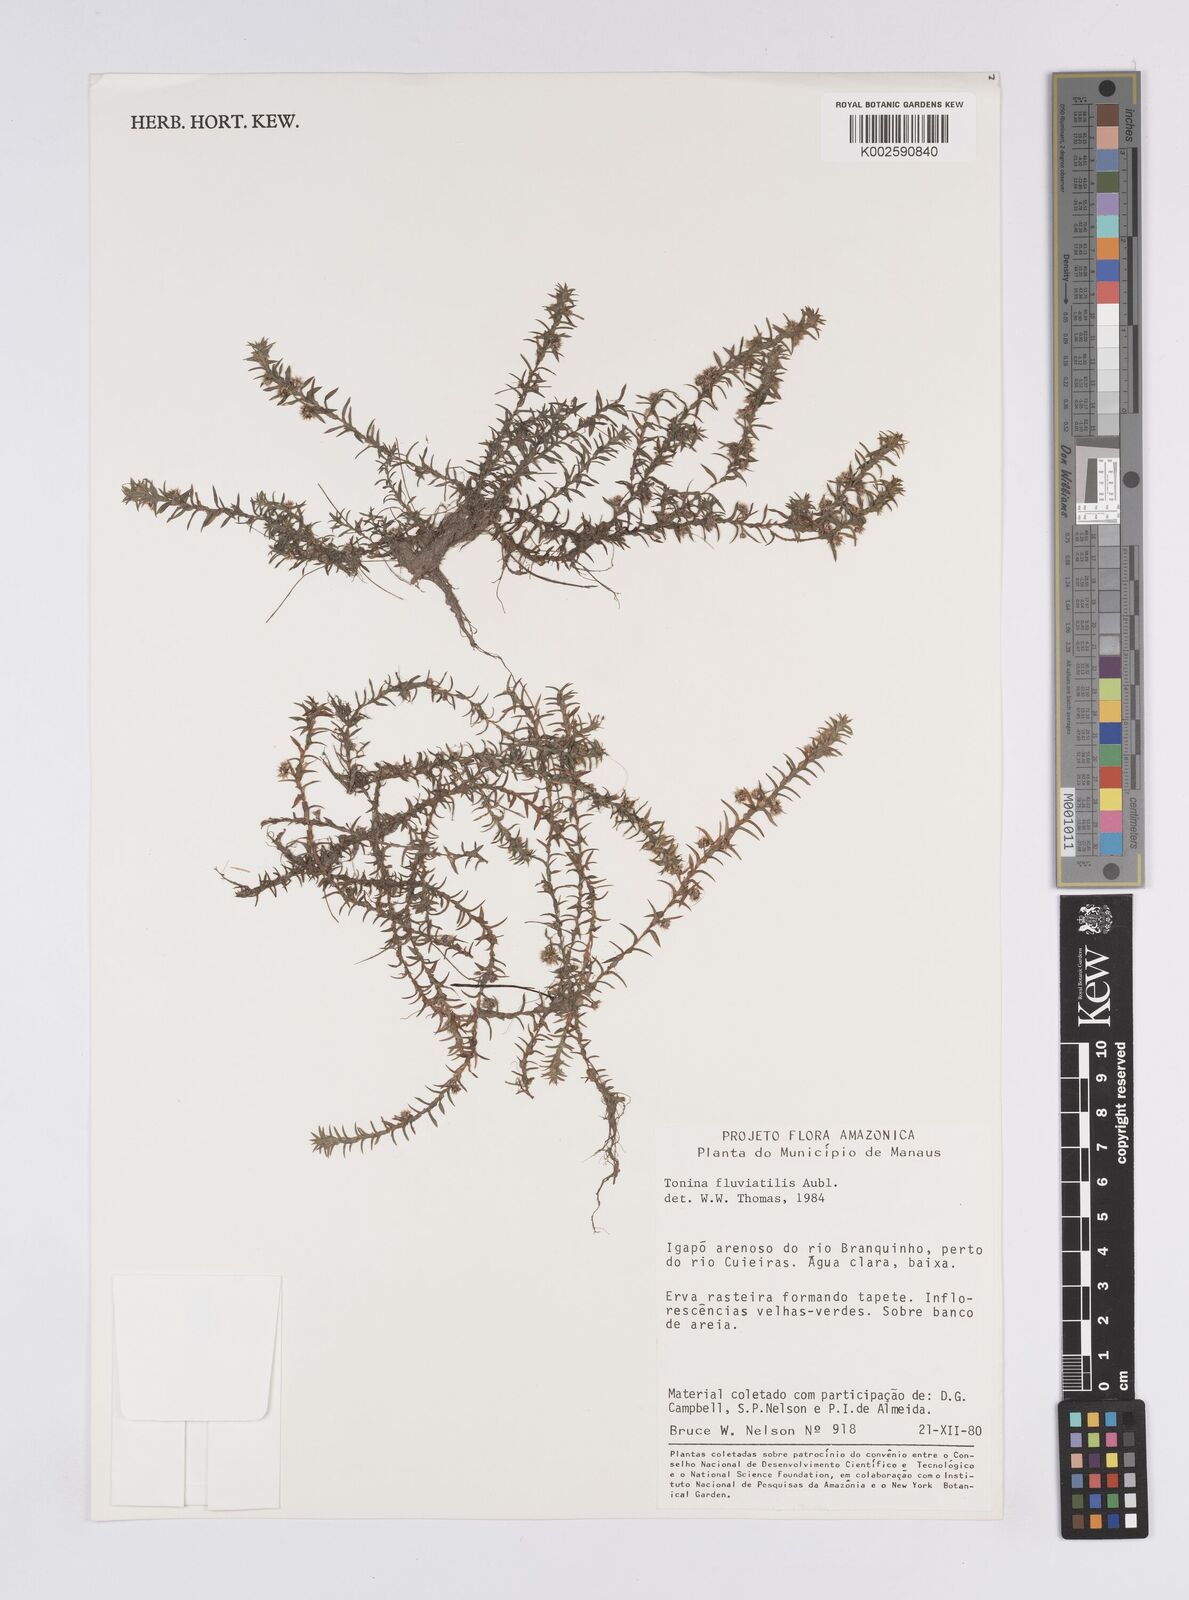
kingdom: Plantae
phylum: Tracheophyta
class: Liliopsida
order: Poales
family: Eriocaulaceae
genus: Paepalanthus
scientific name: Paepalanthus fluviatilis
